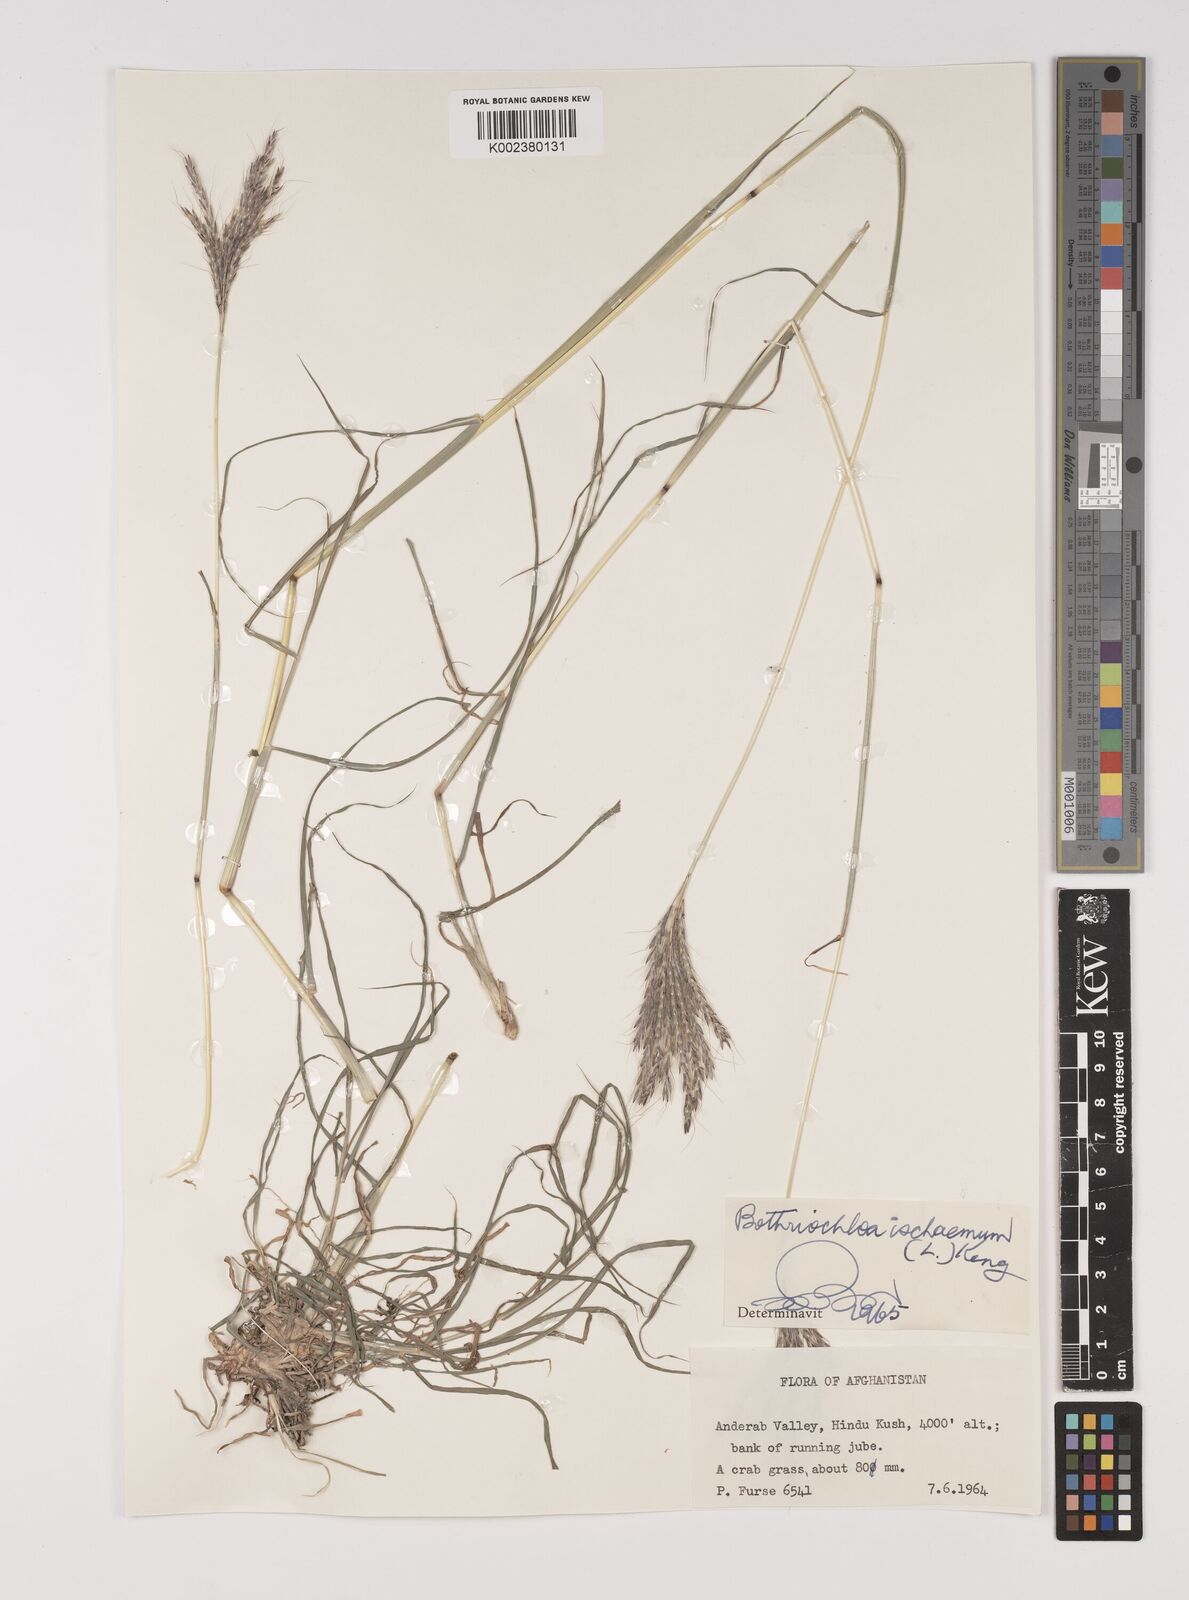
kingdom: Plantae
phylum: Tracheophyta
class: Liliopsida
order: Poales
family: Poaceae
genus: Bothriochloa
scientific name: Bothriochloa ischaemum
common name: Yellow bluestem
